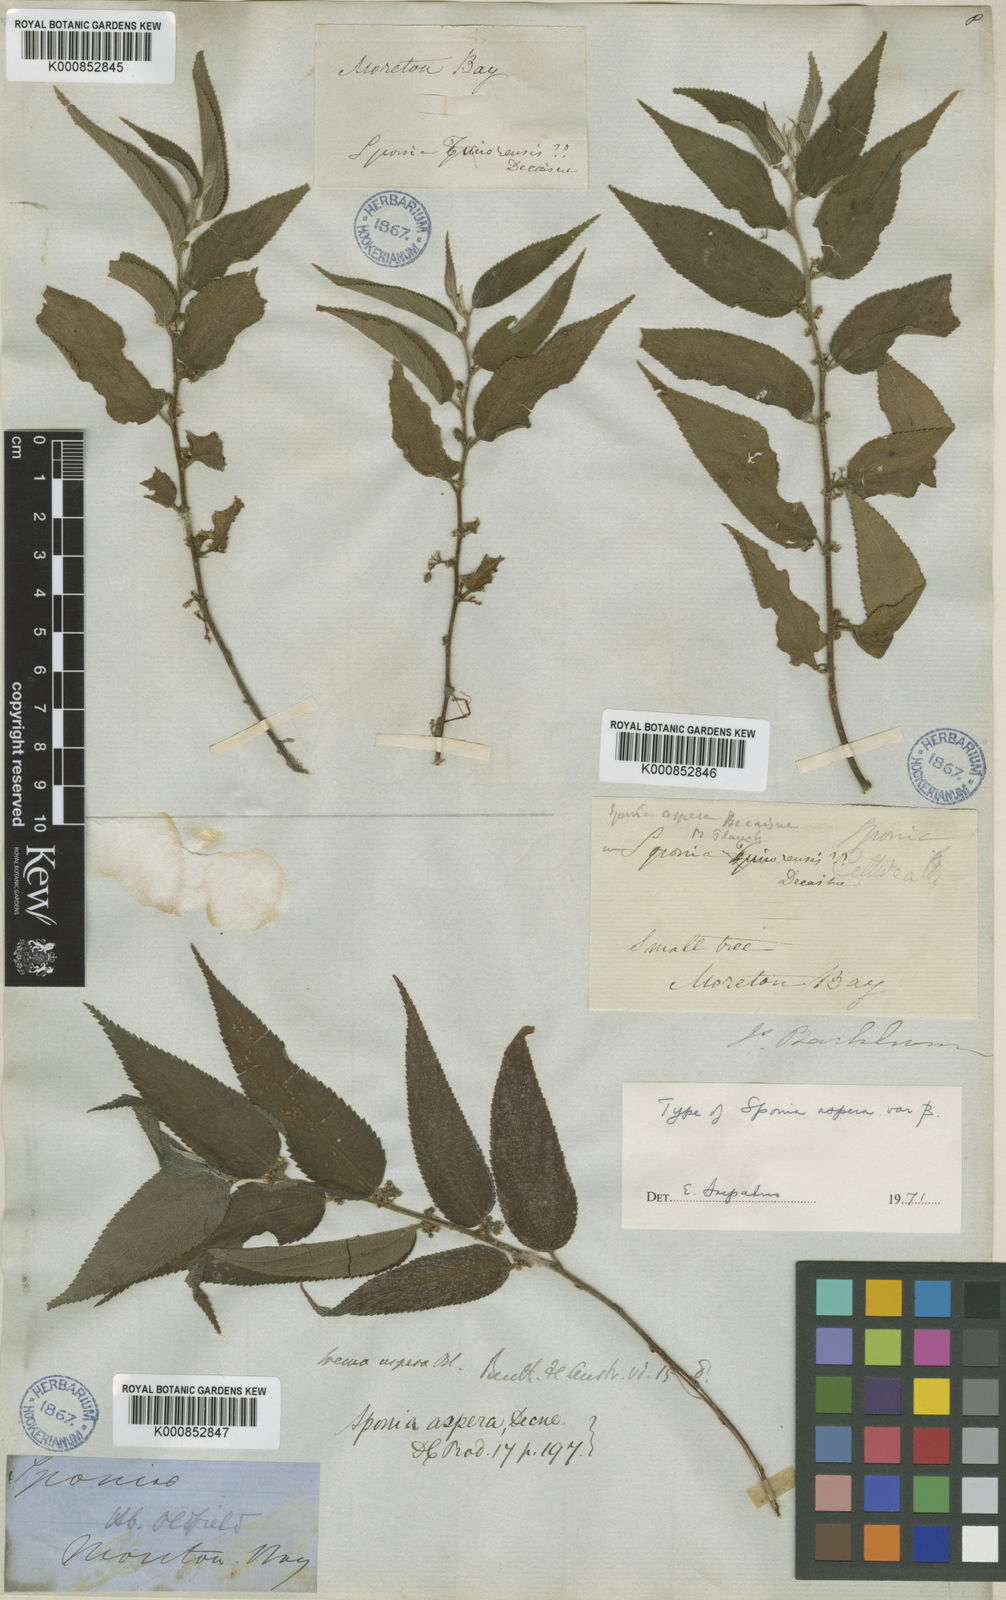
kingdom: Plantae
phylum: Tracheophyta
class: Magnoliopsida
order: Rosales
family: Cannabaceae
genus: Trema
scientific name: Trema tomentosum
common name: Peach-leaf-poisonbush
